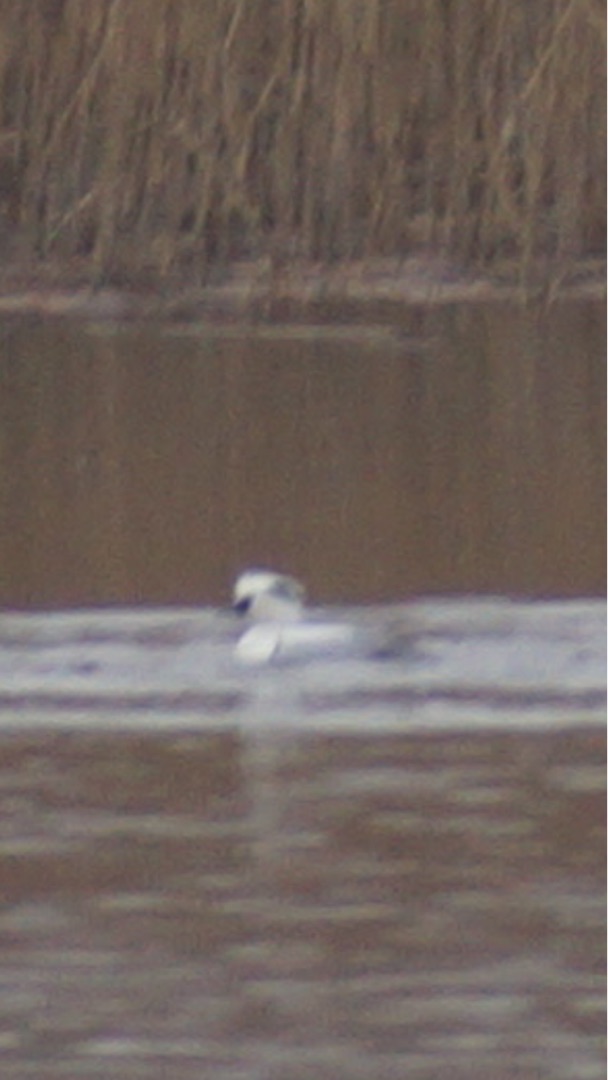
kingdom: Animalia
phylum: Chordata
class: Aves
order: Anseriformes
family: Anatidae
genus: Mergellus
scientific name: Mergellus albellus
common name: Lille skallesluger
